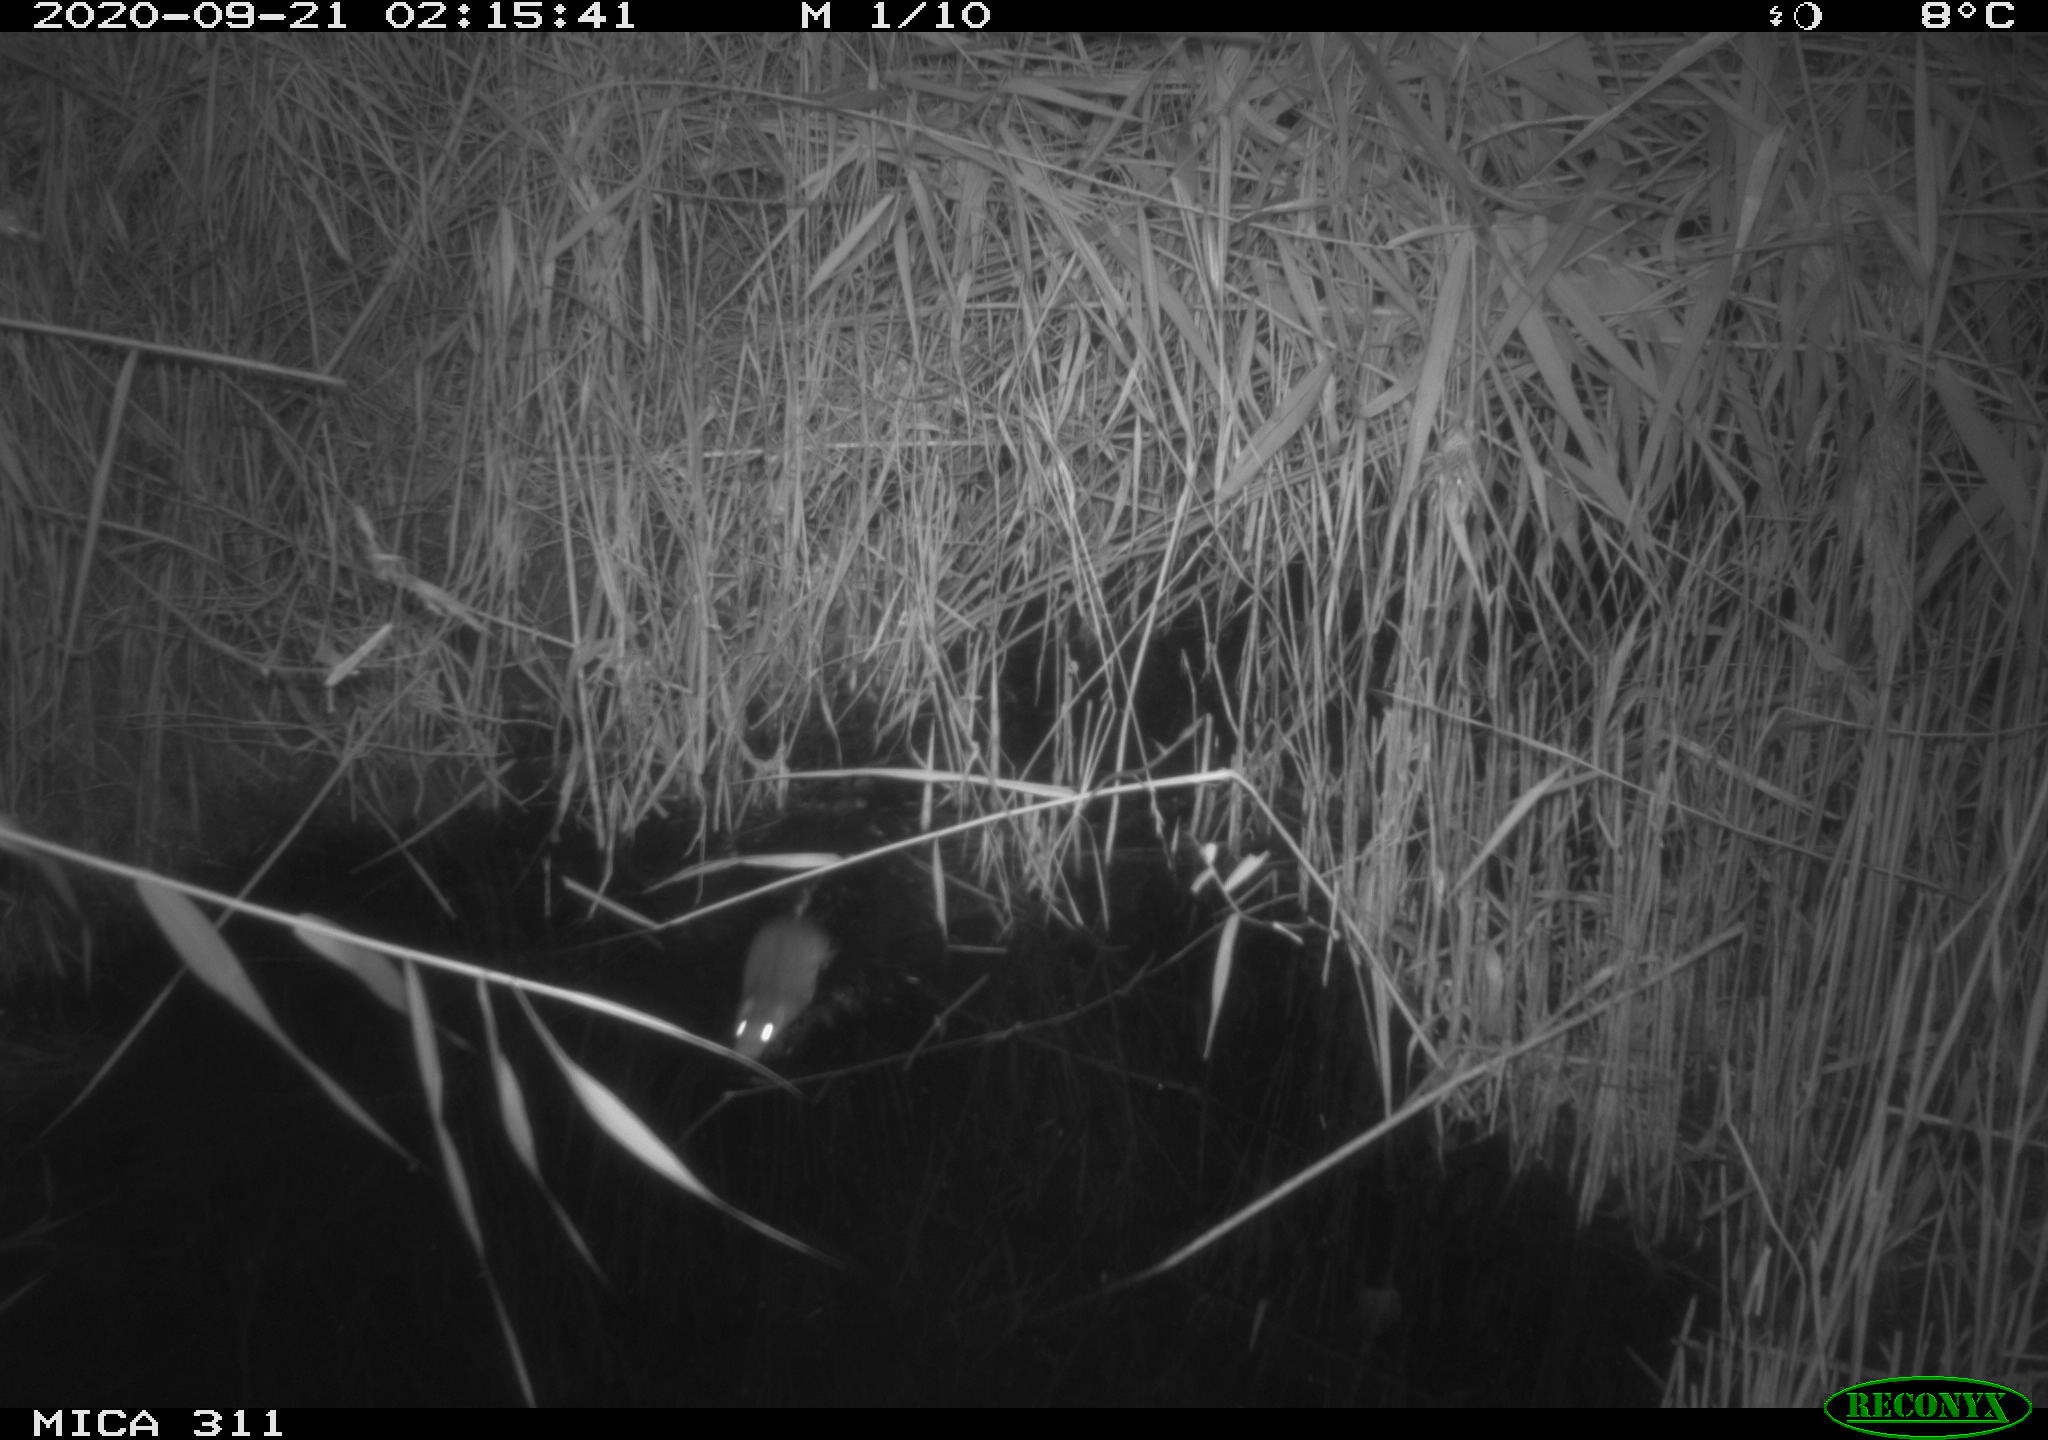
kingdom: Animalia
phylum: Chordata
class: Mammalia
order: Rodentia
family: Muridae
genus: Rattus
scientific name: Rattus norvegicus
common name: Brown rat
